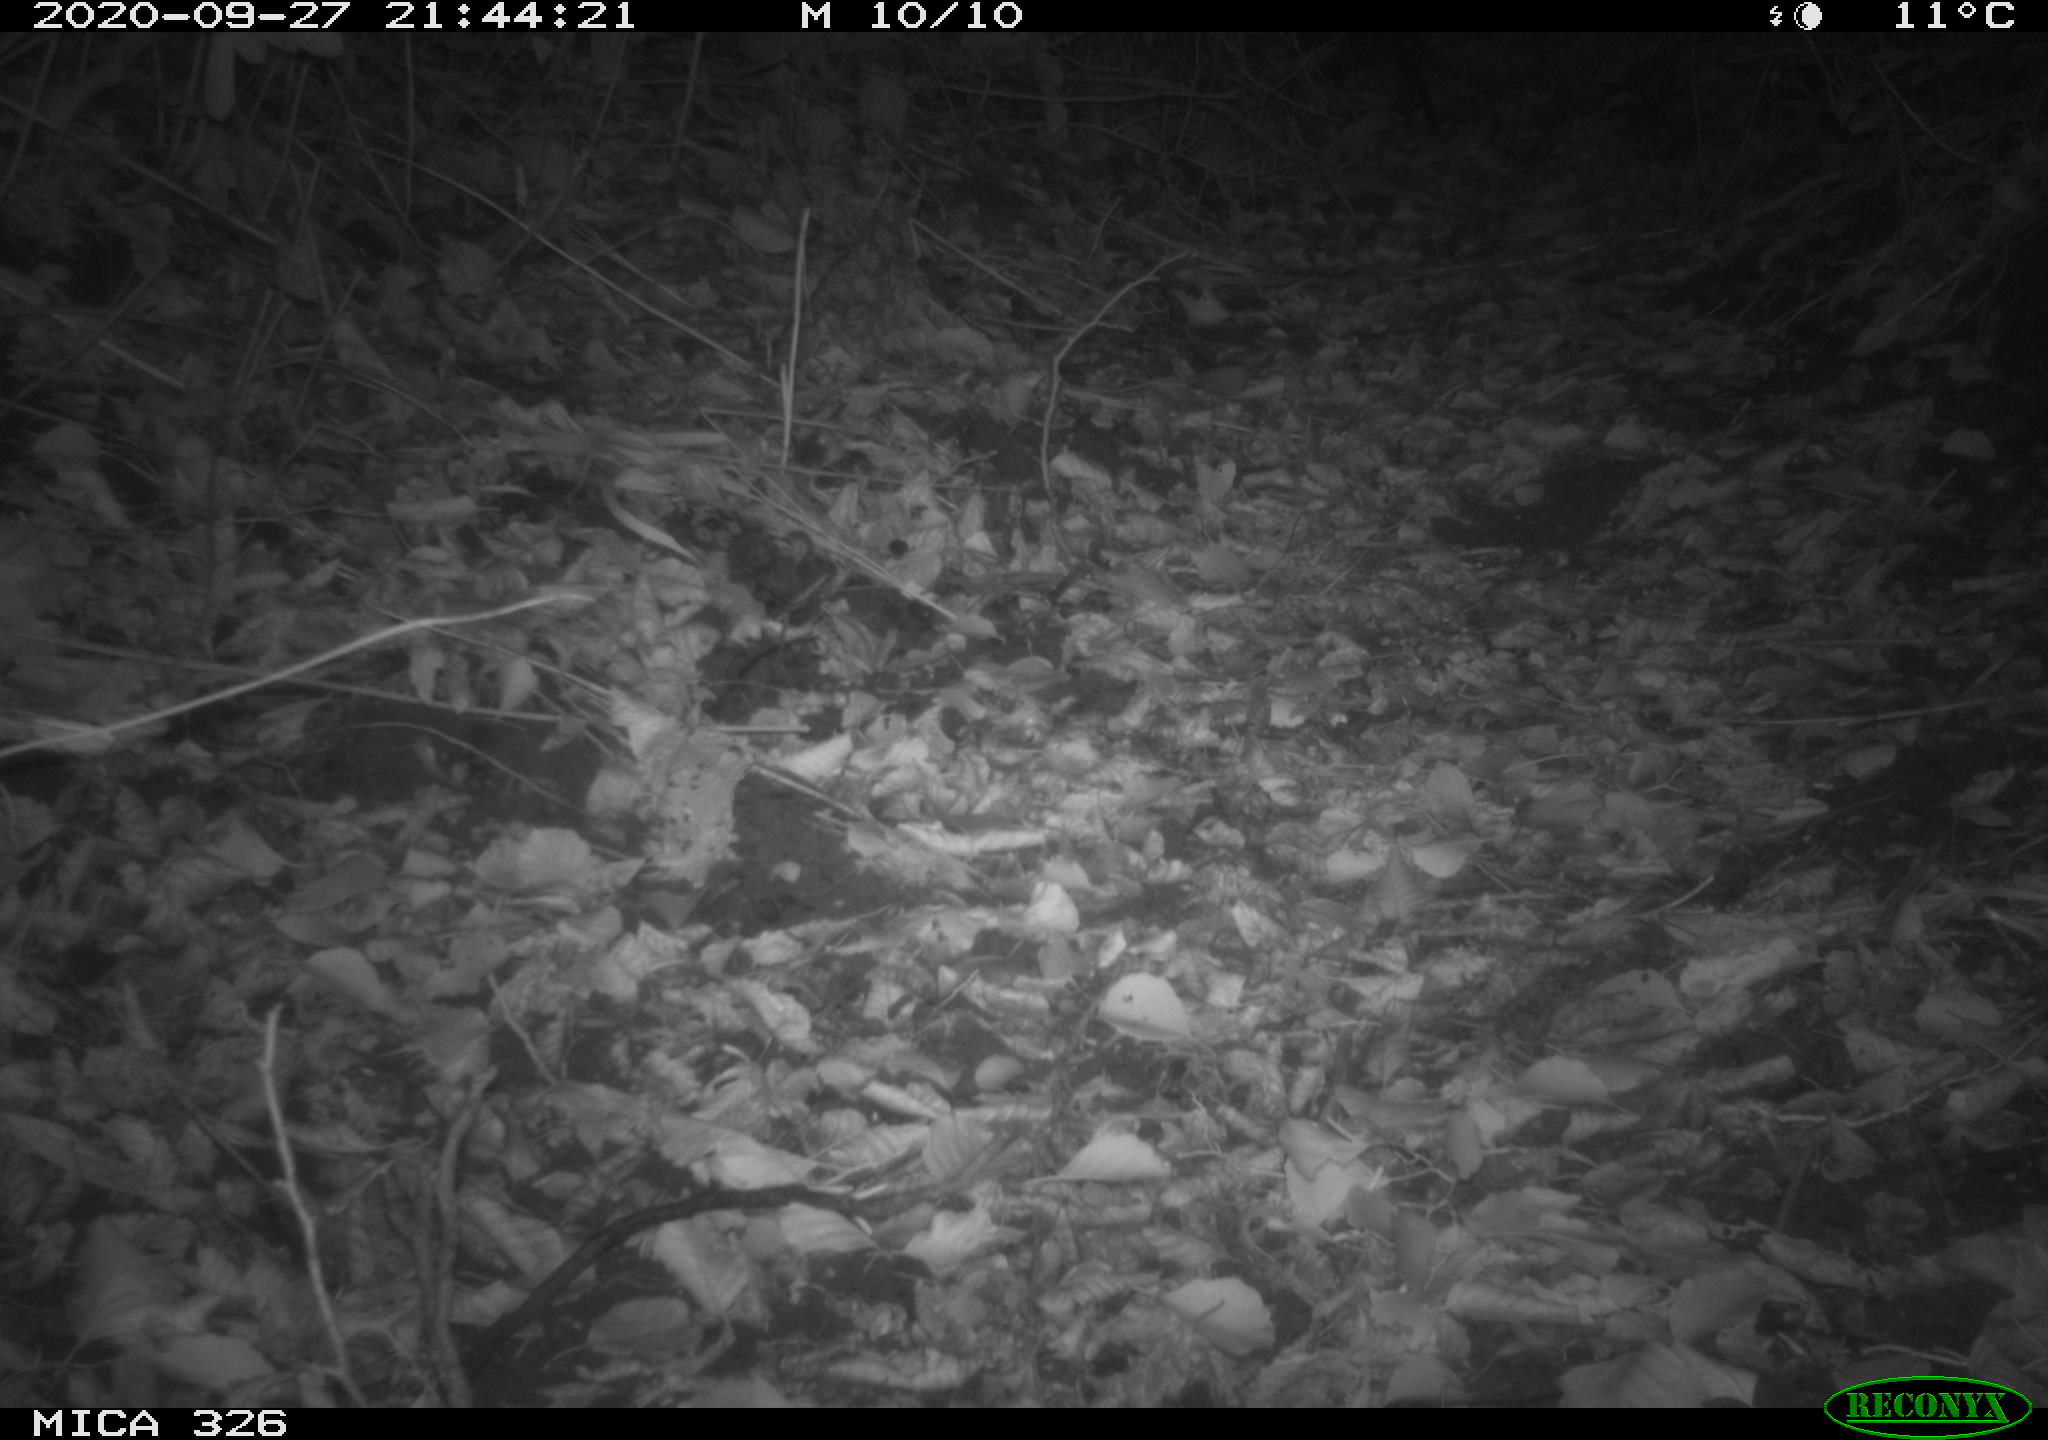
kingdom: Animalia
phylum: Chordata
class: Mammalia
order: Rodentia
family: Myocastoridae
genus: Myocastor
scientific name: Myocastor coypus
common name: Coypu
